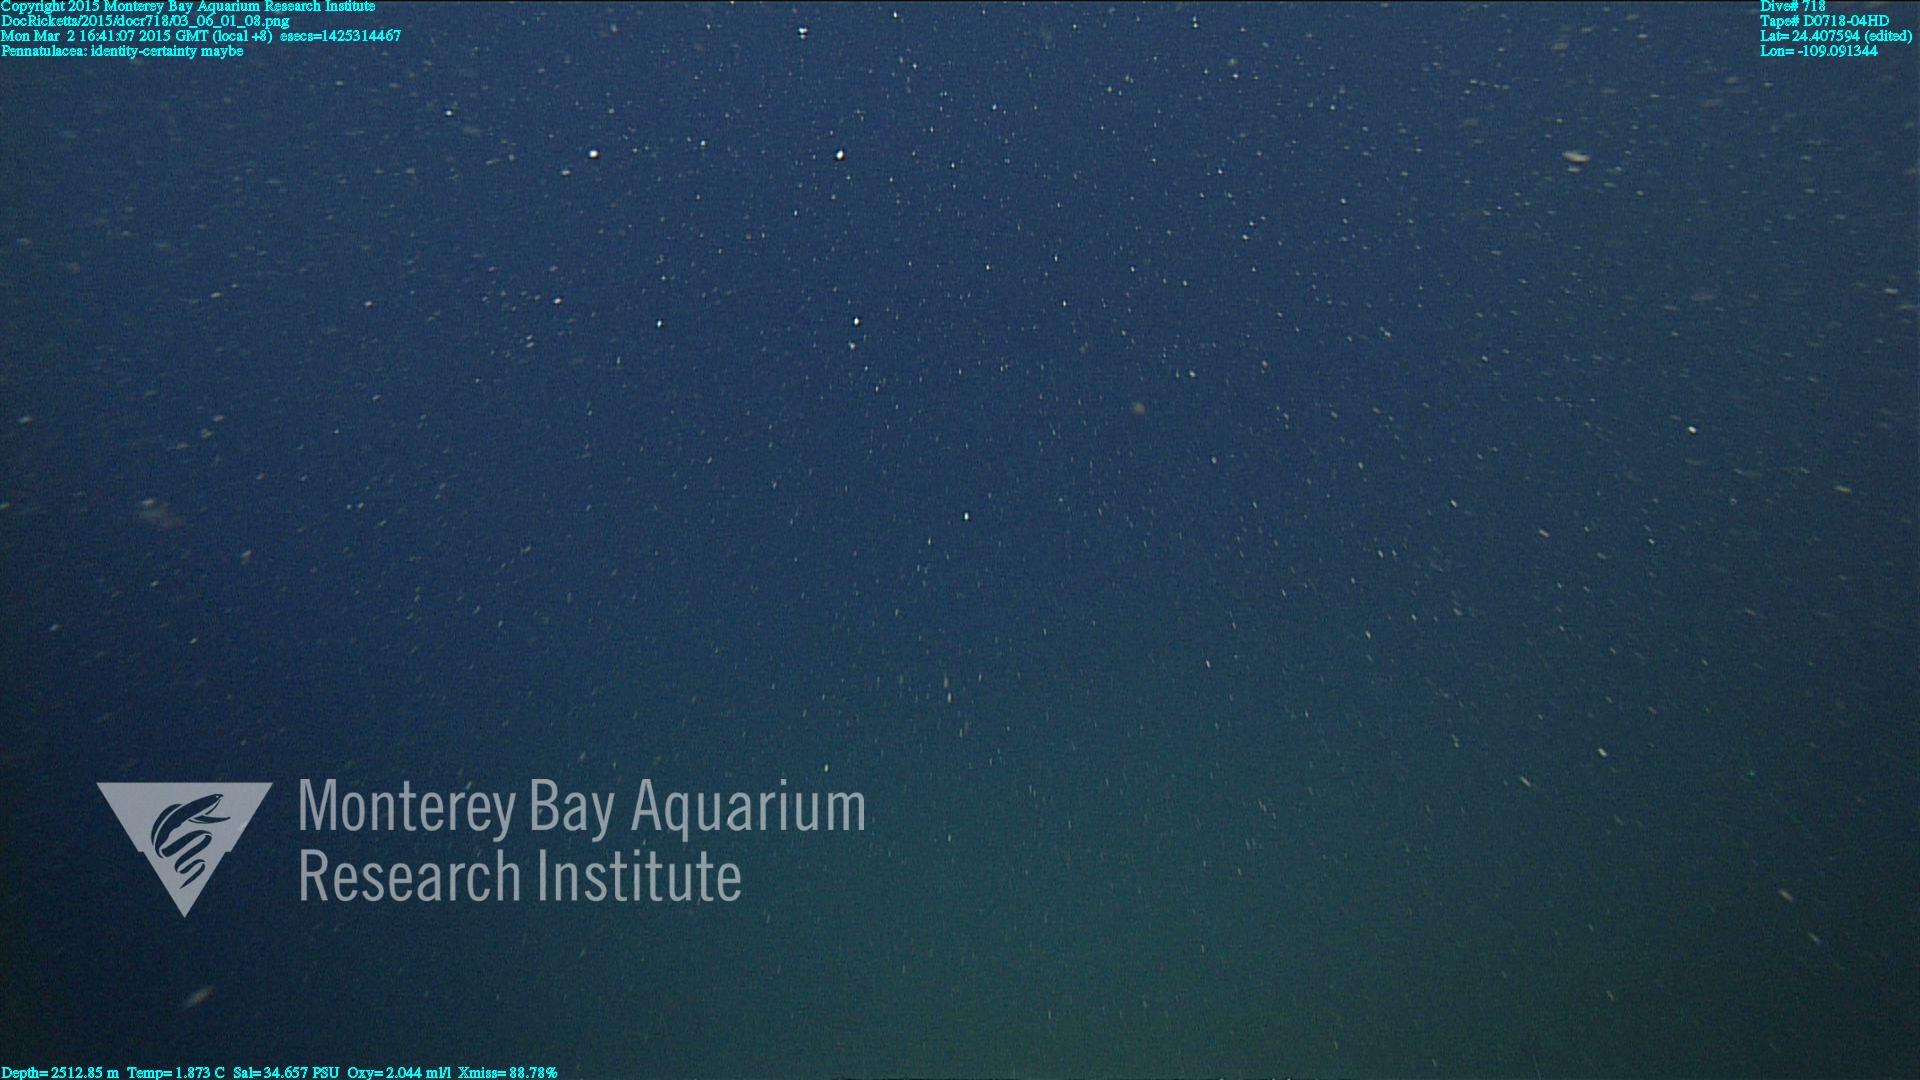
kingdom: Animalia
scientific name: Animalia
